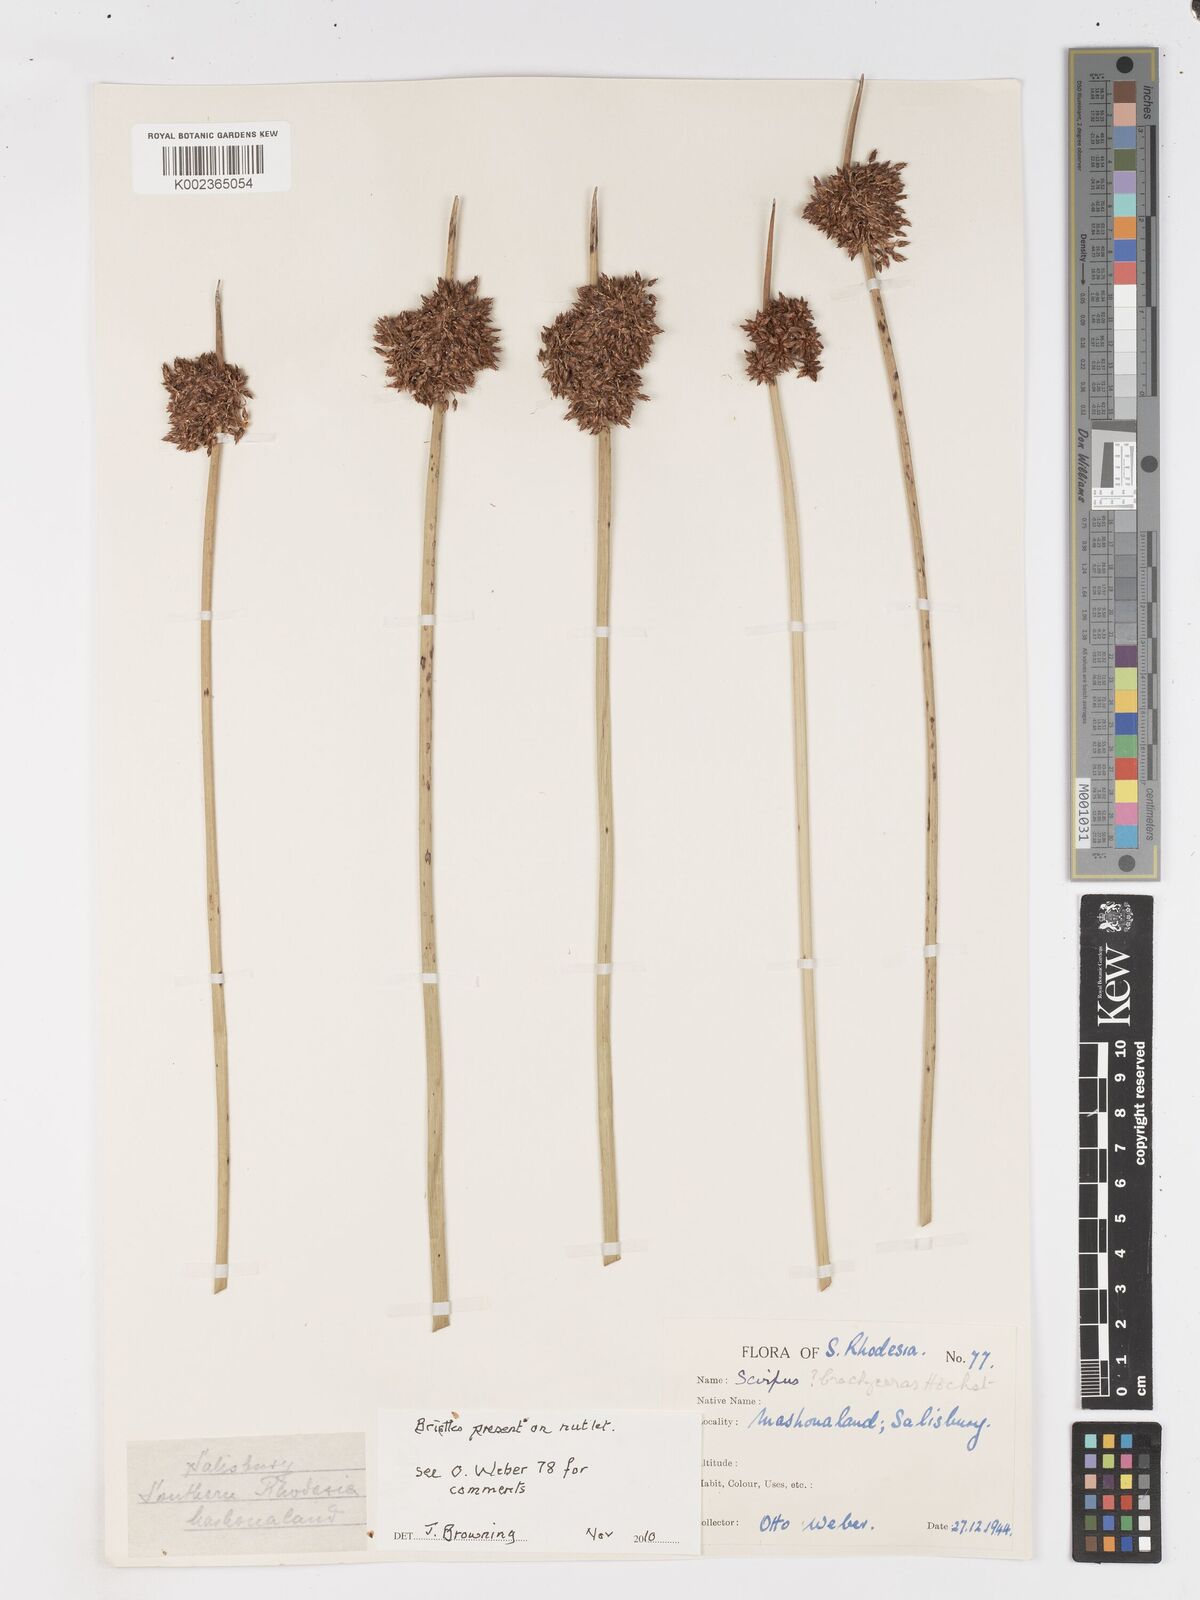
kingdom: Plantae
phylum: Tracheophyta
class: Liliopsida
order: Poales
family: Cyperaceae
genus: Schoenoplectus
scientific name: Schoenoplectus
